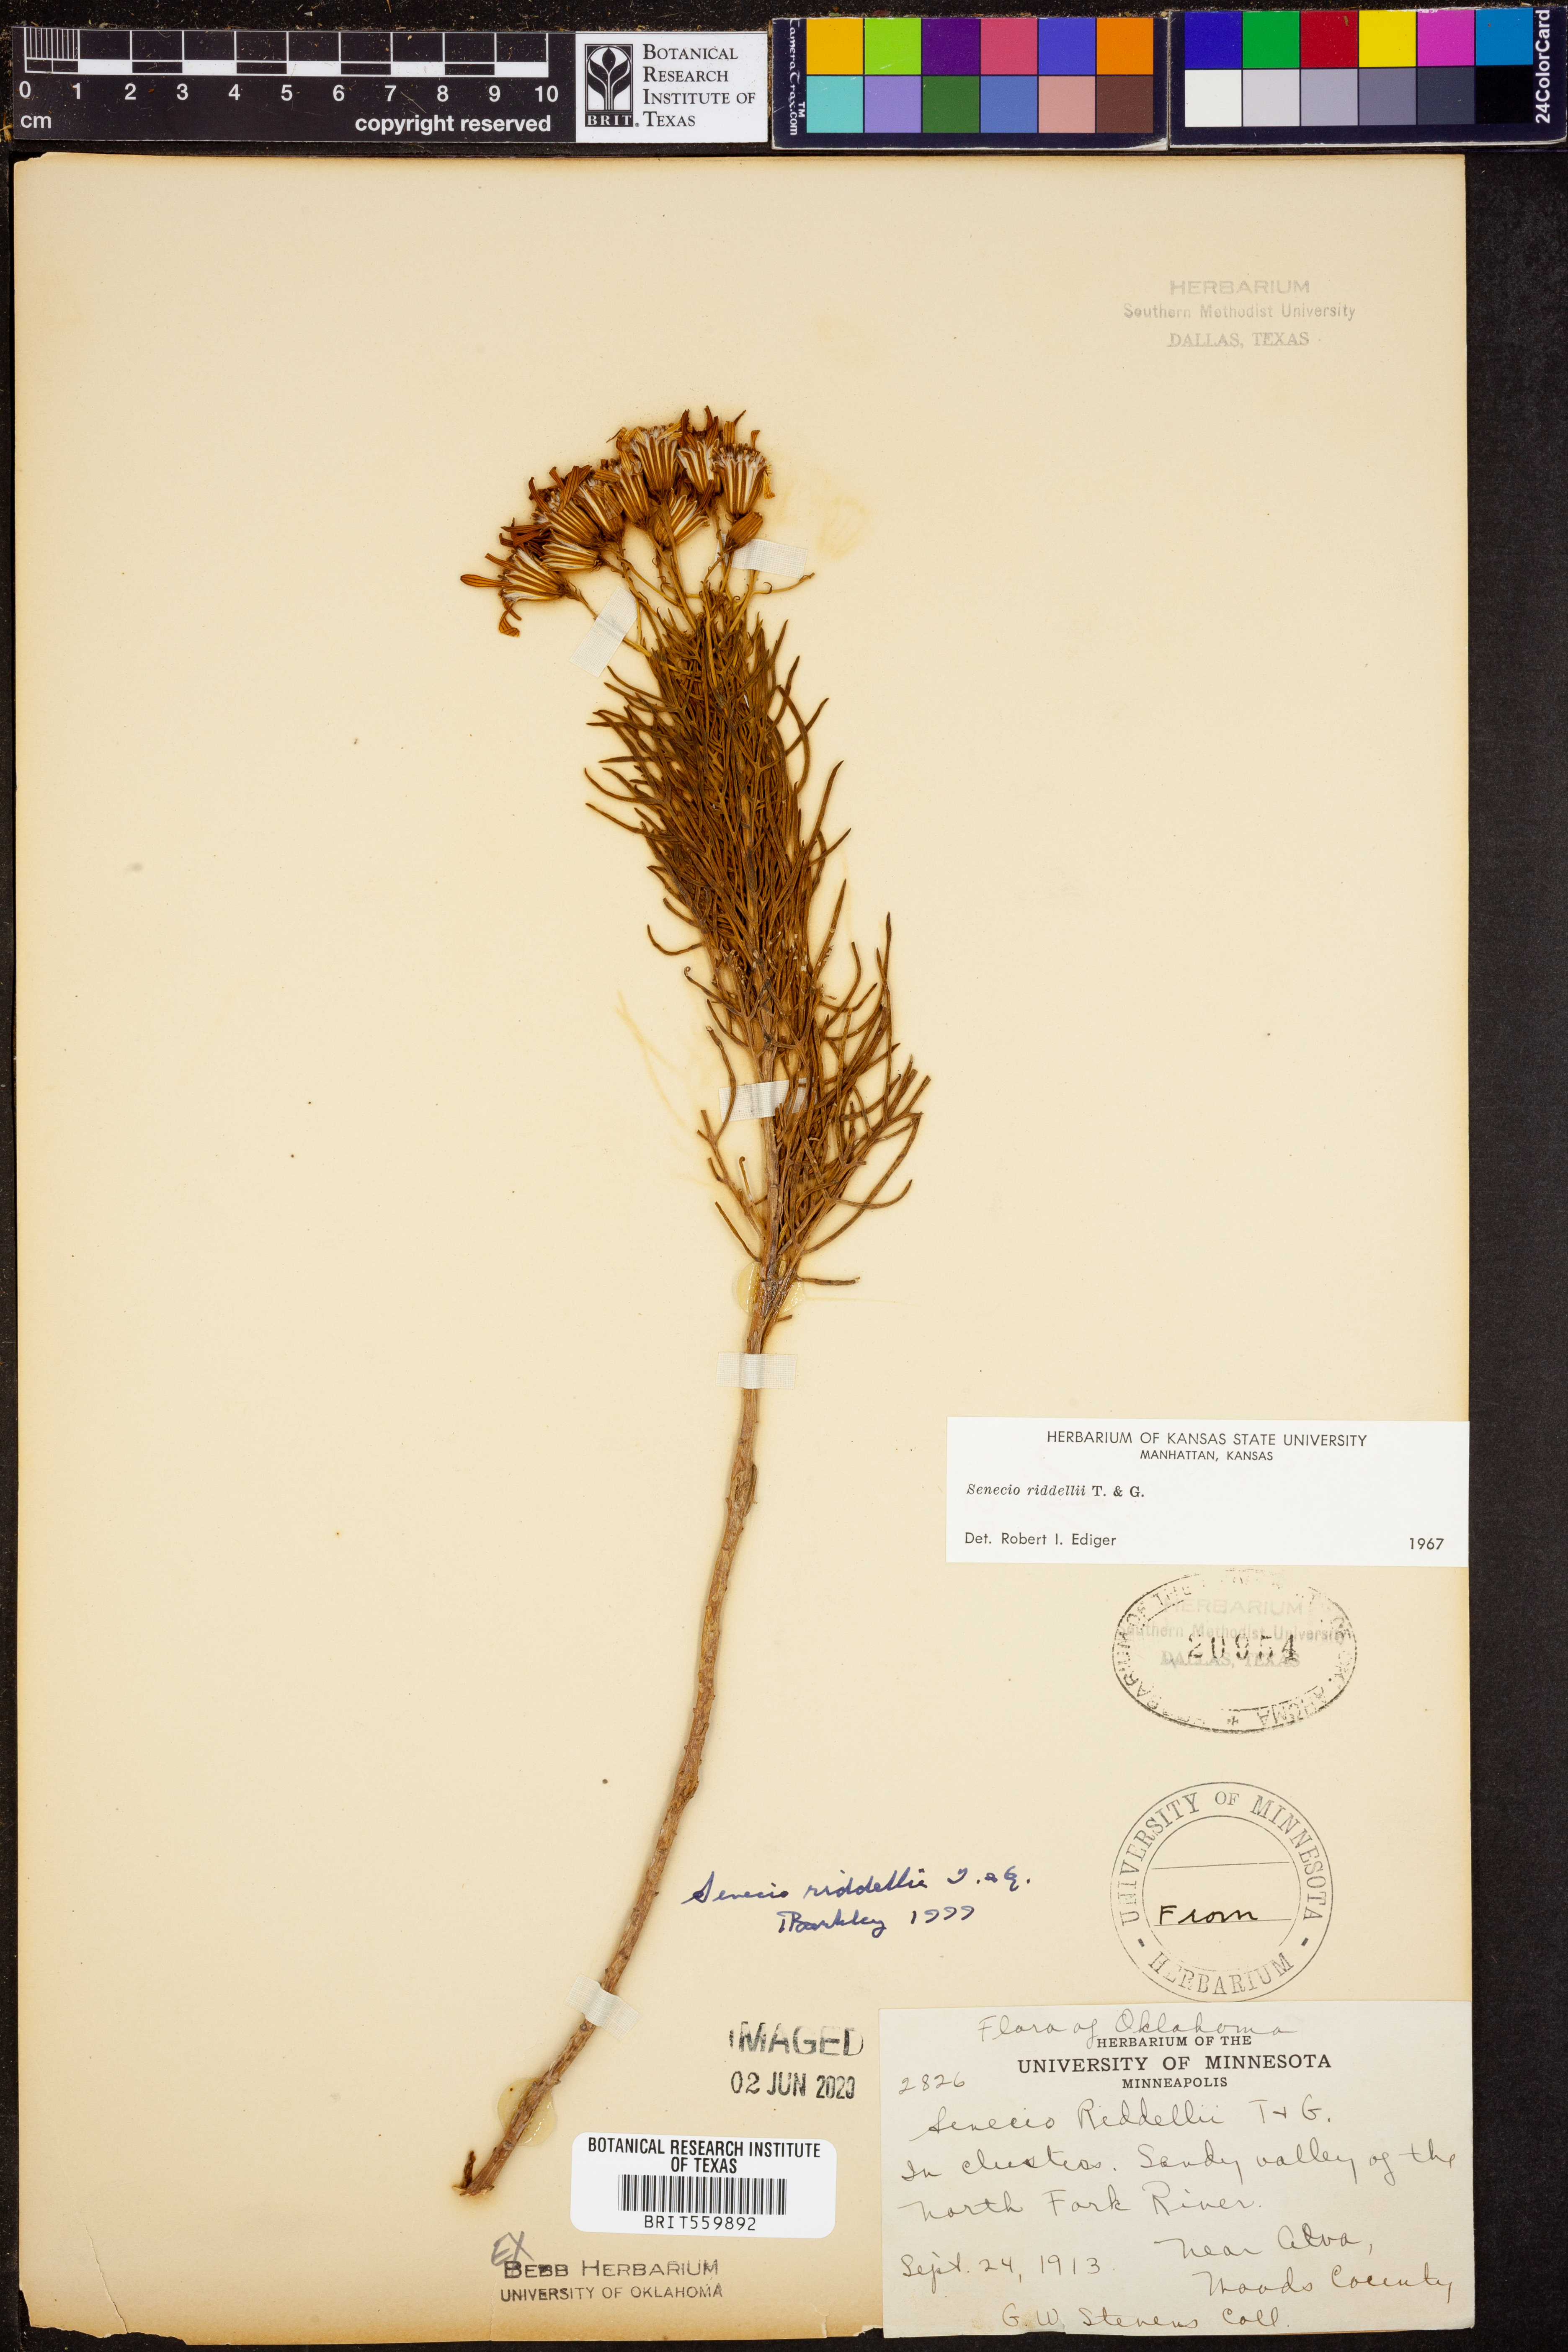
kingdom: Plantae
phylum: Tracheophyta
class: Magnoliopsida
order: Asterales
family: Asteraceae
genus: Senecio
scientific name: Senecio riddellii
